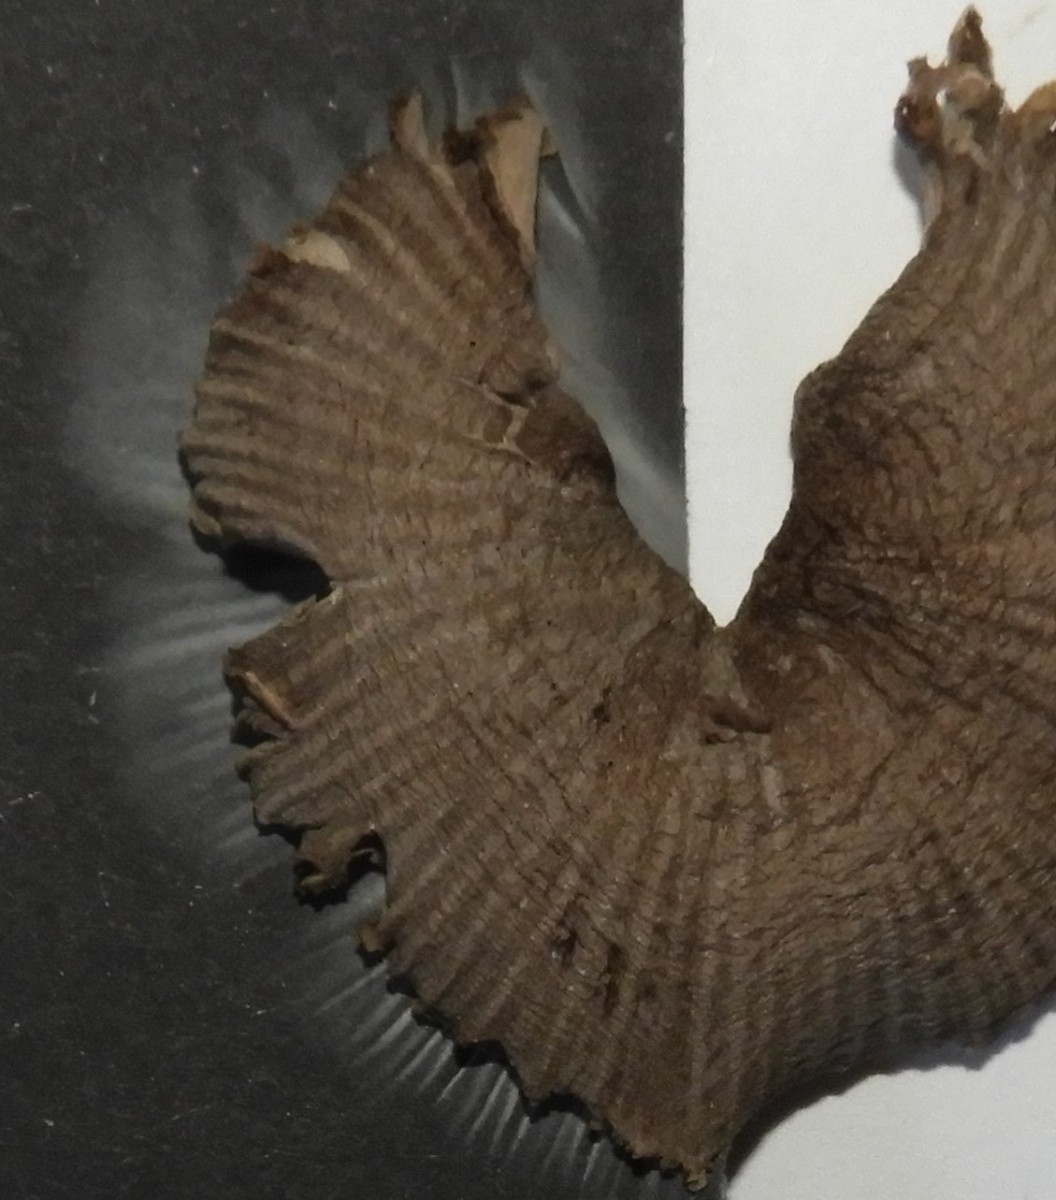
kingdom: Fungi
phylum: Basidiomycota
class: Agaricomycetes
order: Agaricales
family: Mycenaceae
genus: Mycena
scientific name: Mycena abramsii
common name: sommer-huesvamp
